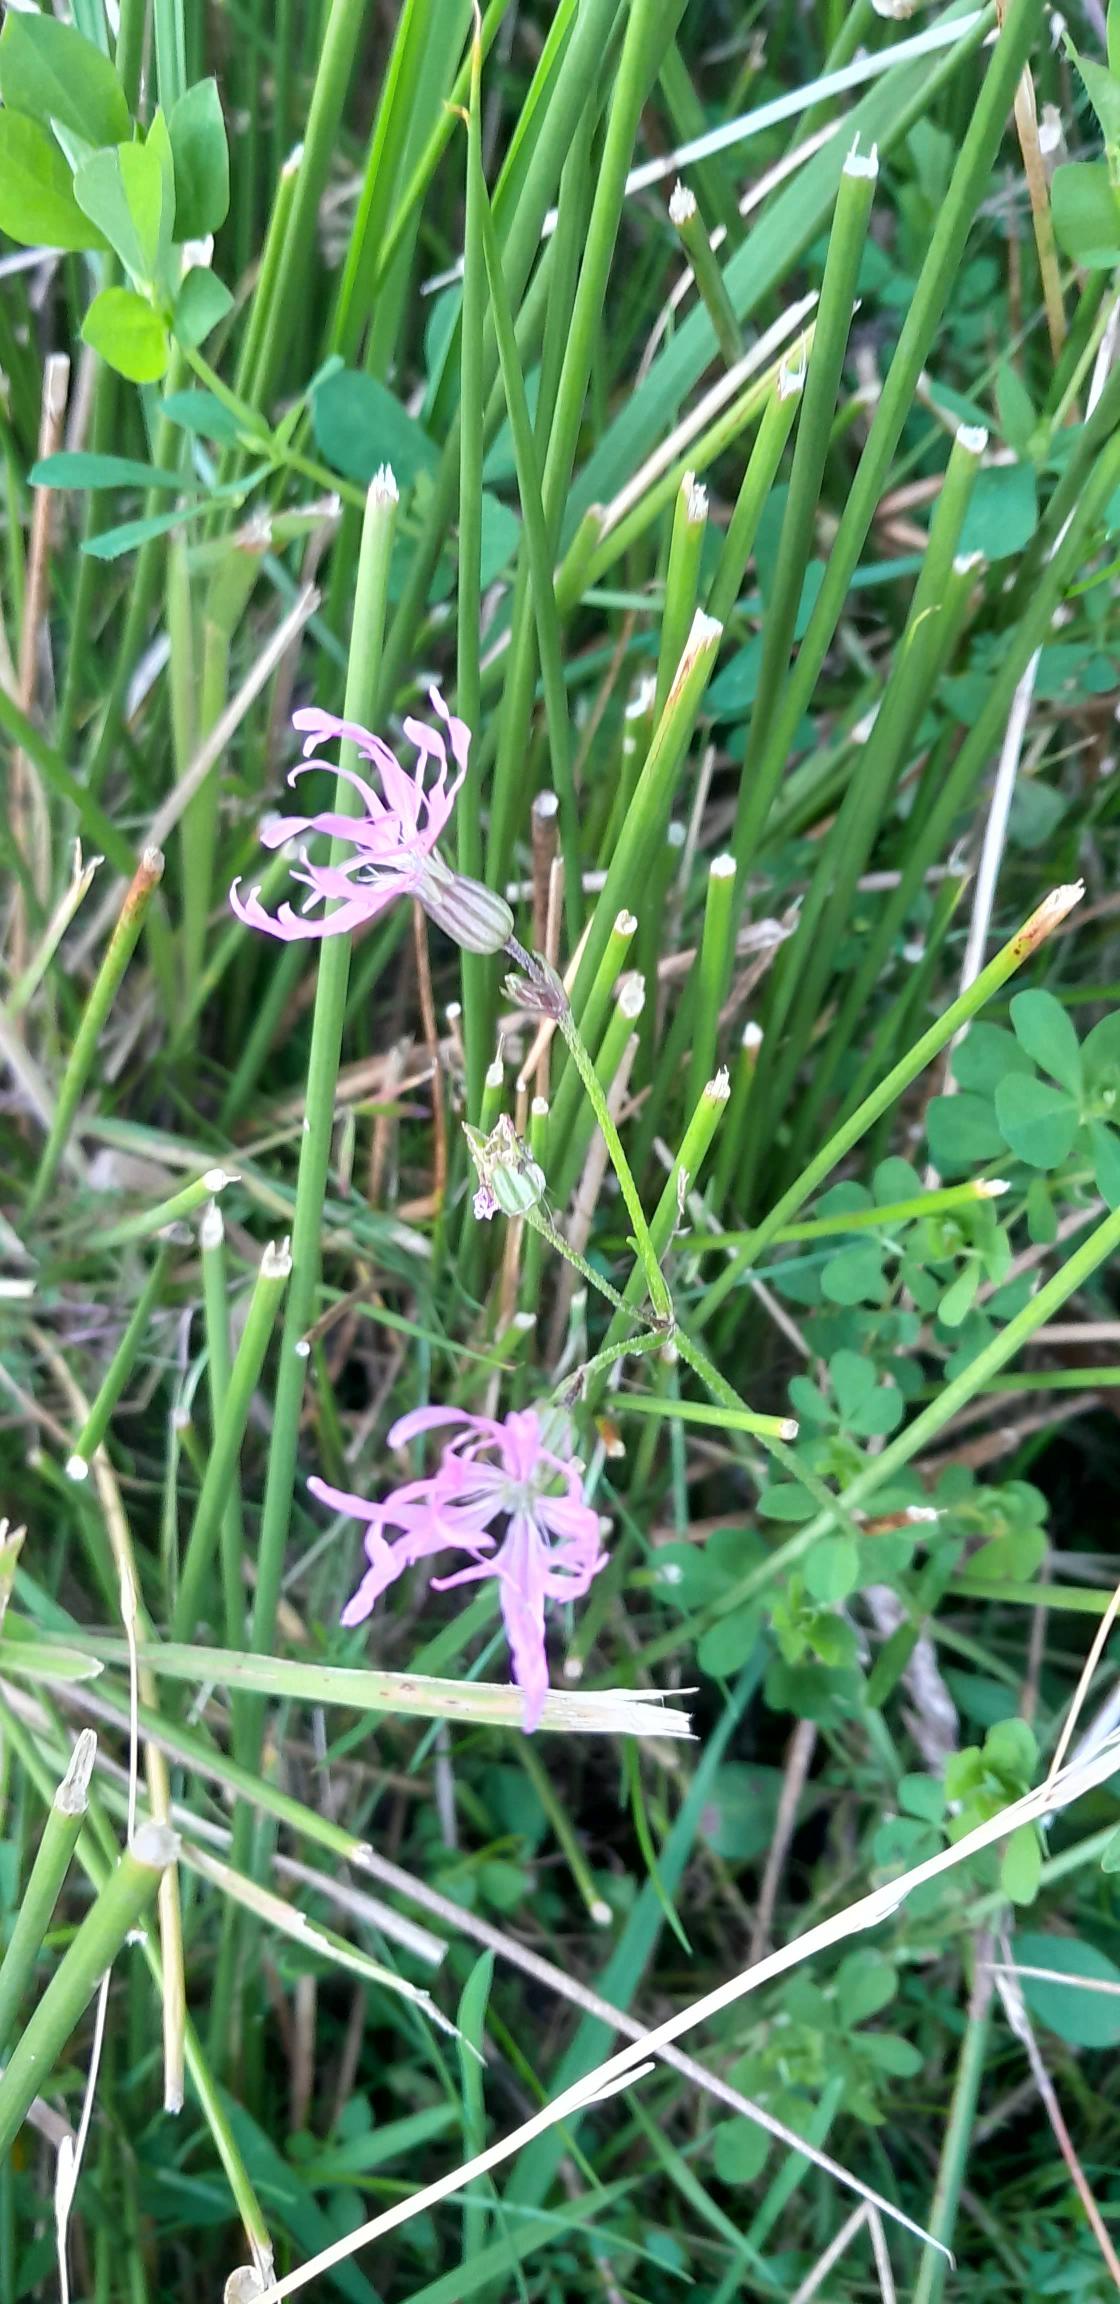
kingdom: Plantae
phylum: Tracheophyta
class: Magnoliopsida
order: Caryophyllales
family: Caryophyllaceae
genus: Silene
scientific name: Silene flos-cuculi
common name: Trævlekrone
